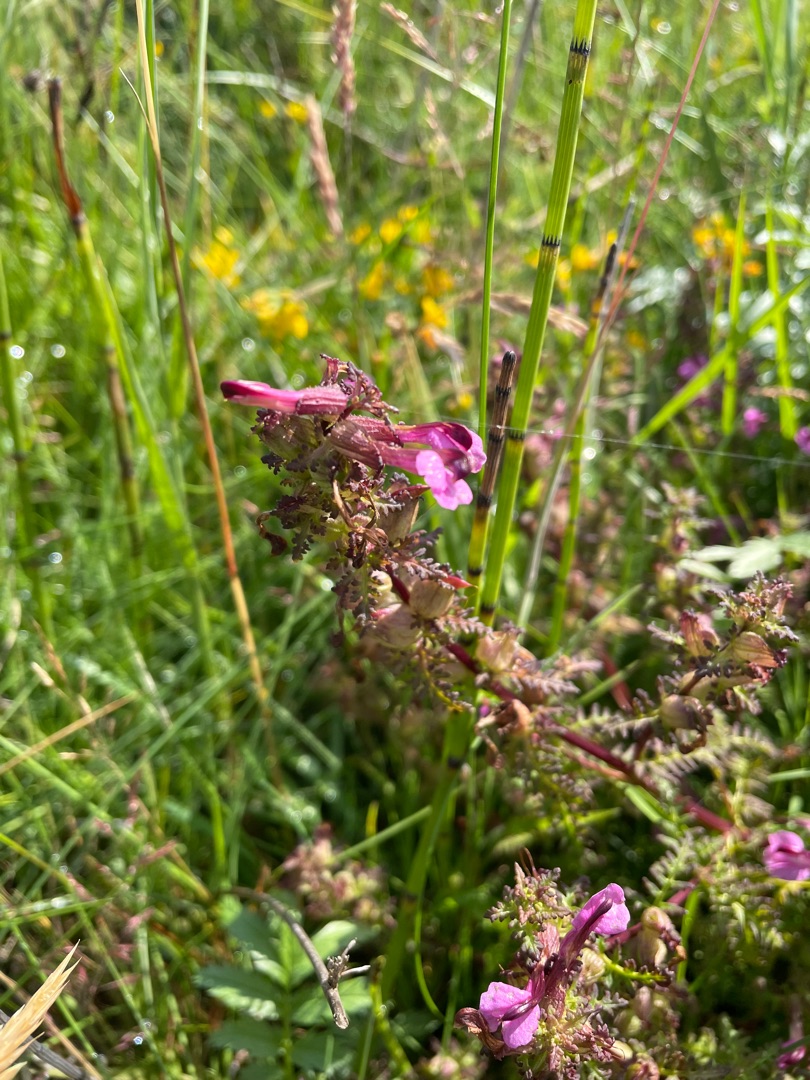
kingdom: Plantae
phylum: Tracheophyta
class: Magnoliopsida
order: Lamiales
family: Orobanchaceae
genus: Pedicularis
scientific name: Pedicularis palustris
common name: Eng-troldurt
